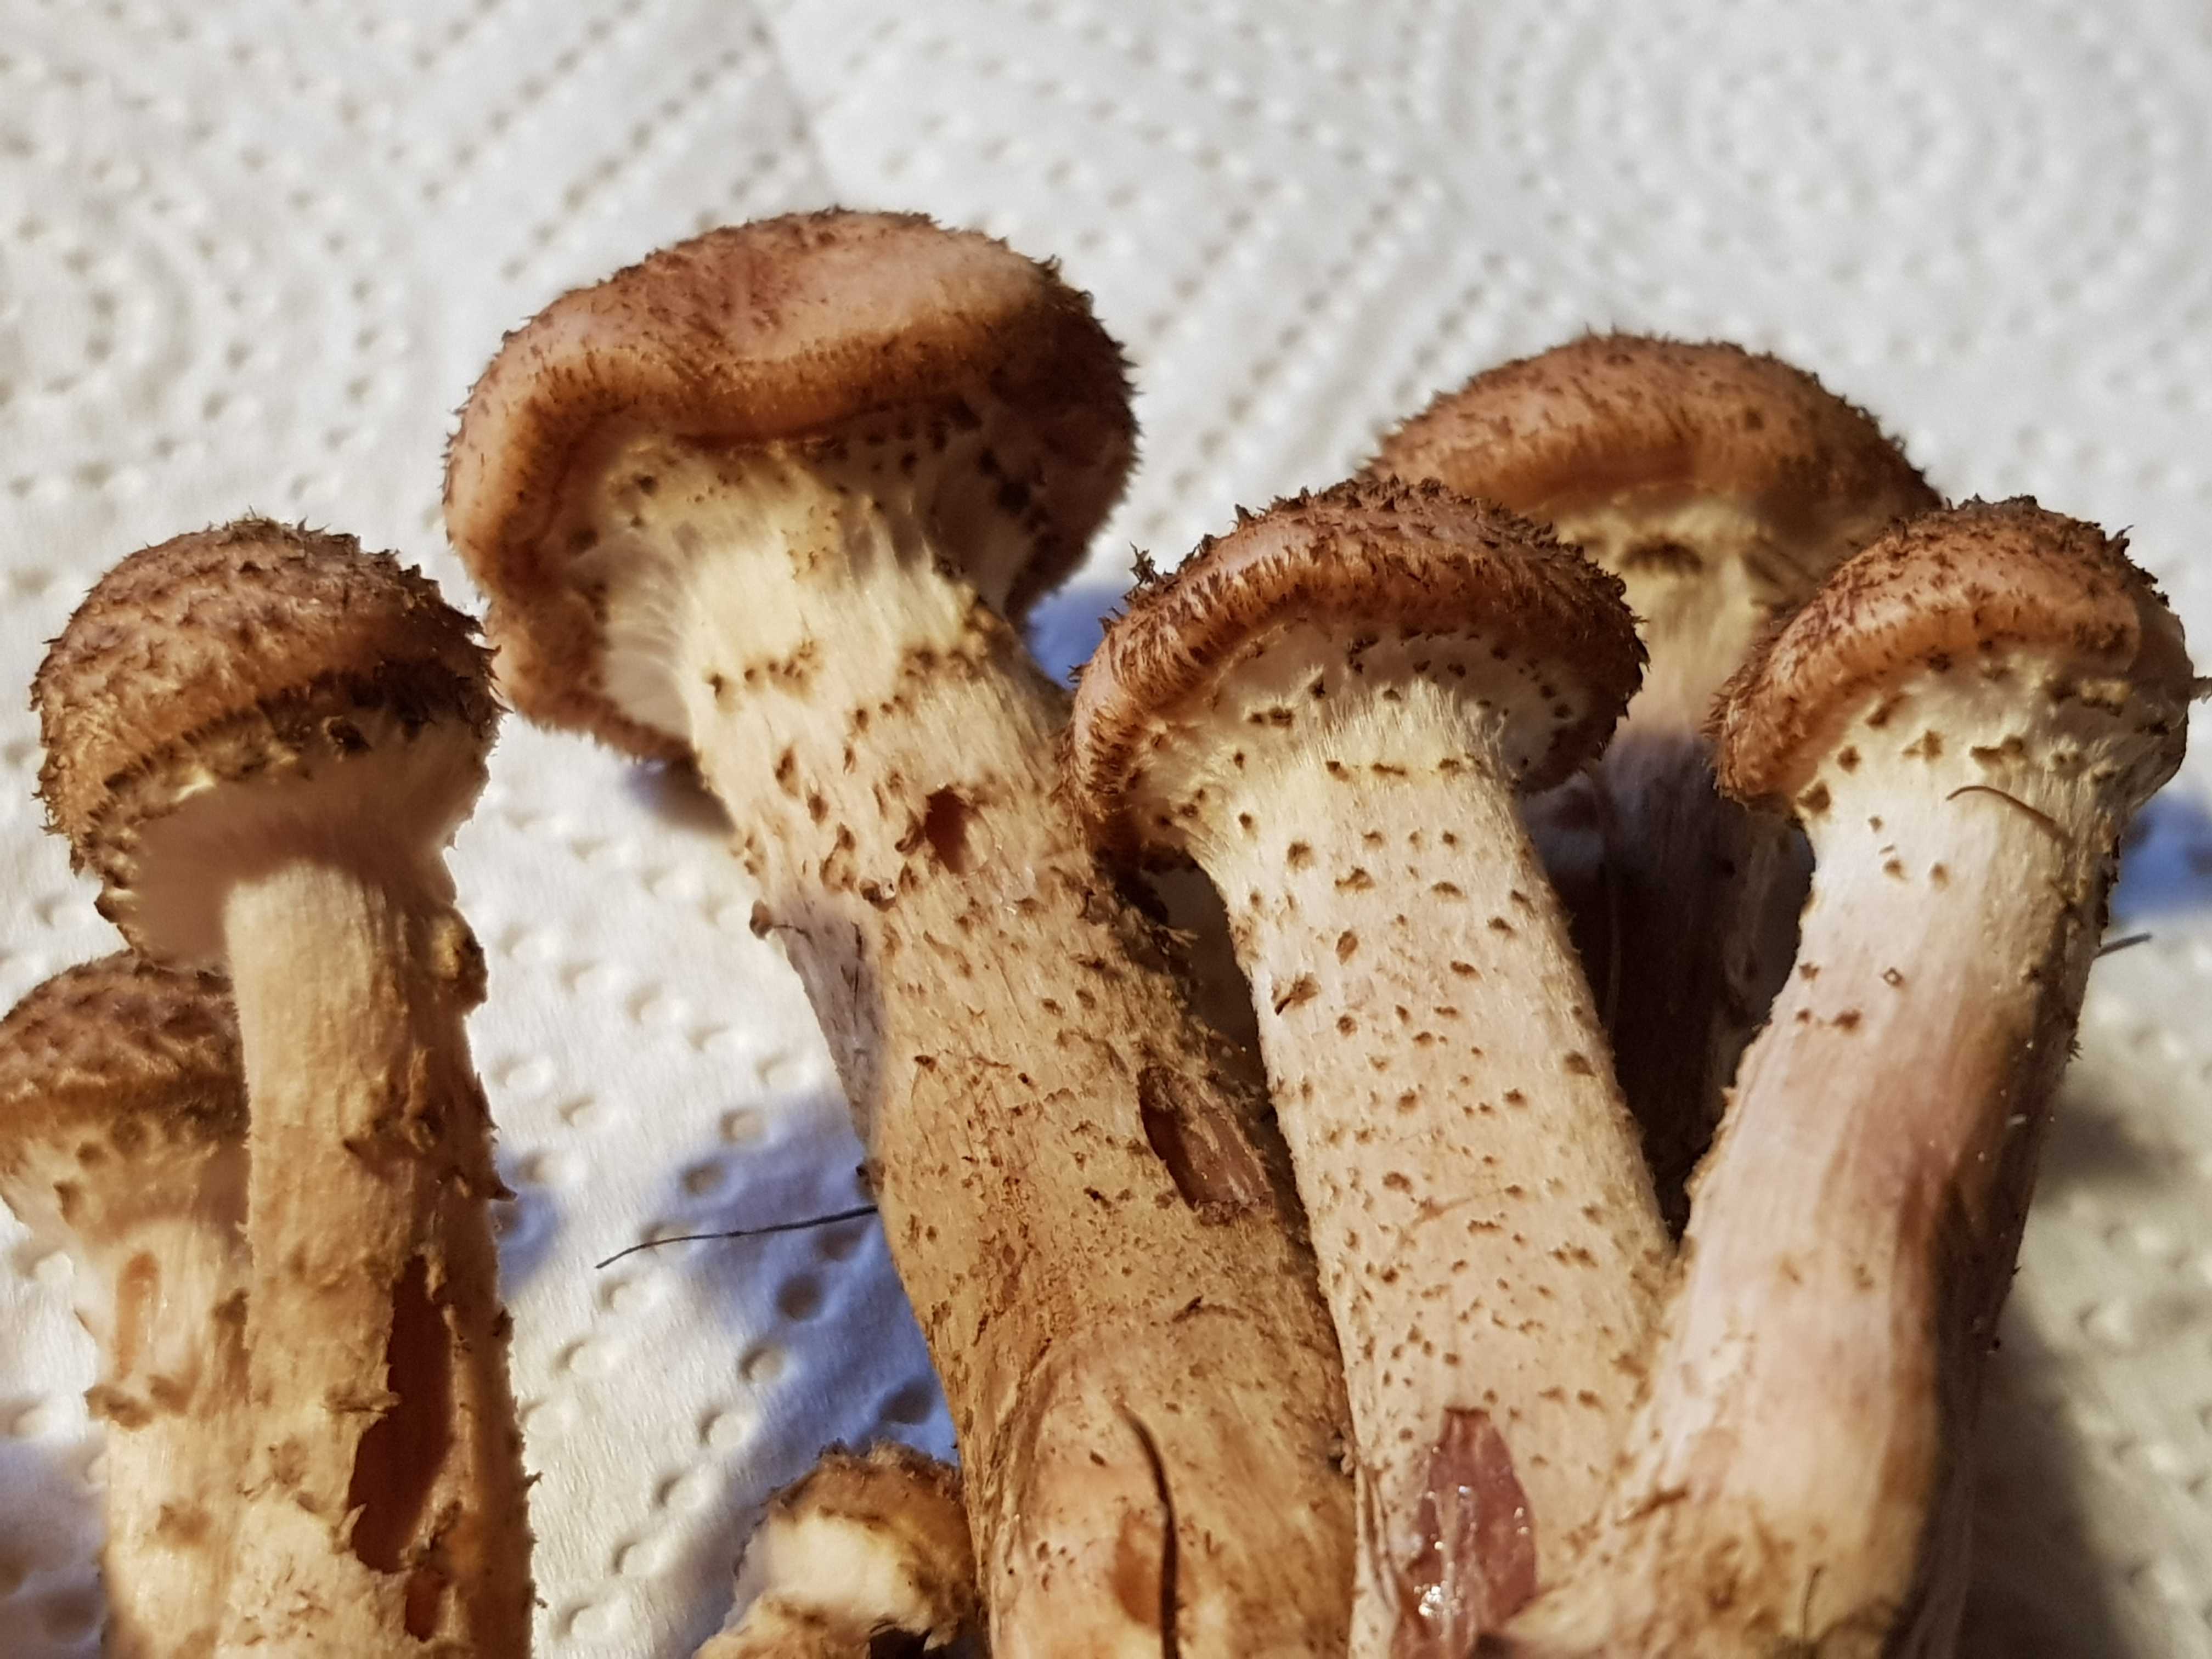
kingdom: Fungi
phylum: Basidiomycota
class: Agaricomycetes
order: Agaricales
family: Physalacriaceae
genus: Armillaria
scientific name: Armillaria ostoyae
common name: mørk honningsvamp
